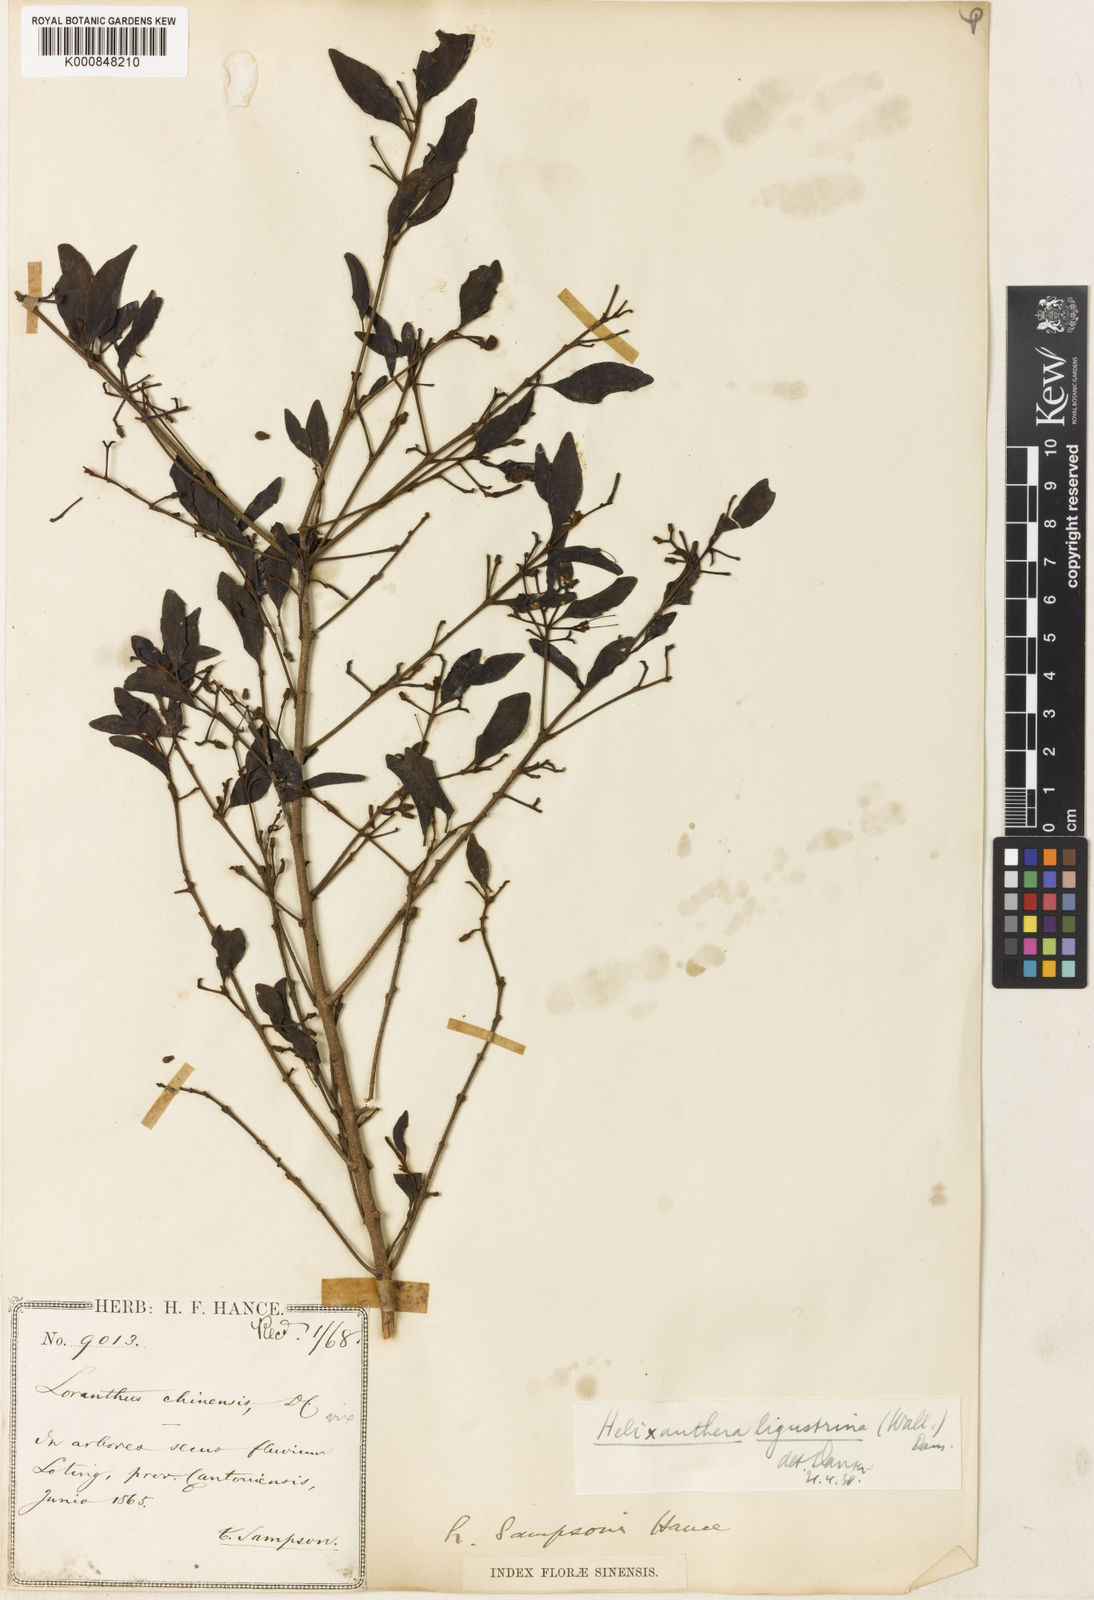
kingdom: Plantae
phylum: Tracheophyta
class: Magnoliopsida
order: Santalales
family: Loranthaceae
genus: Helixanthera
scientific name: Helixanthera ligustrina
